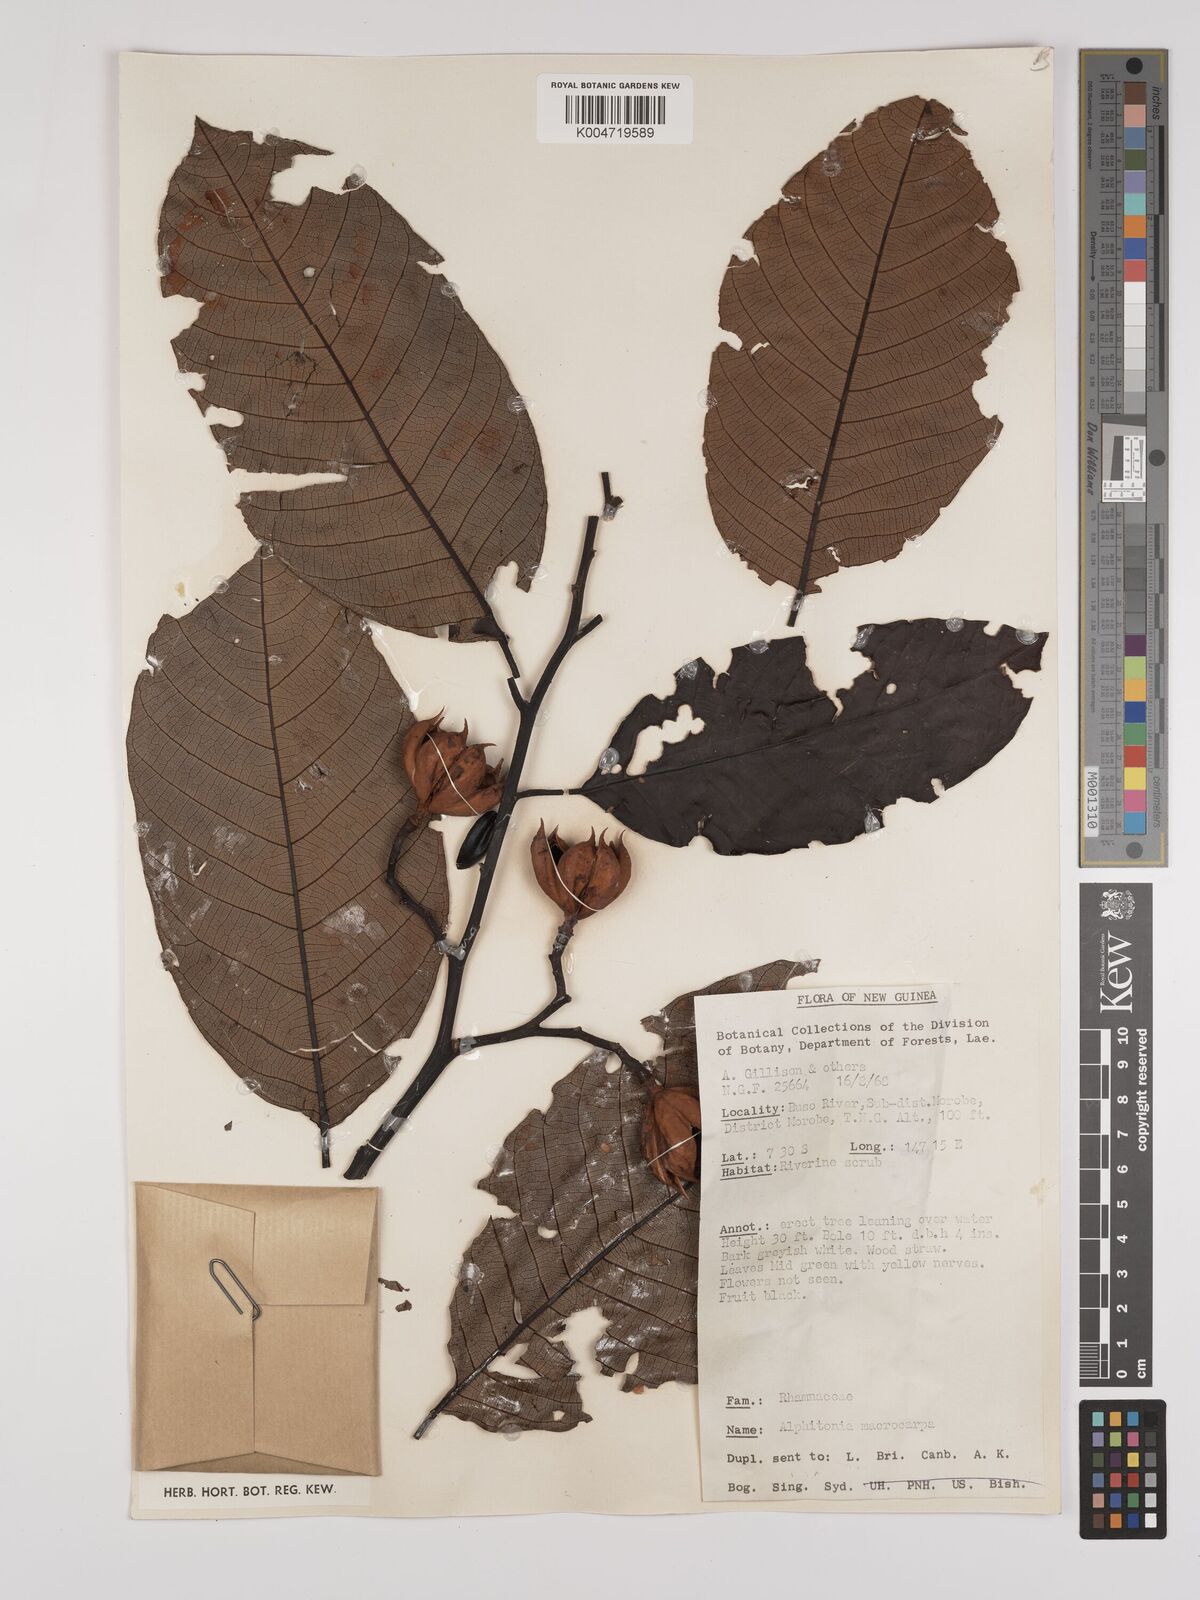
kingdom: Plantae
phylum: Tracheophyta
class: Magnoliopsida
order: Rosales
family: Rhamnaceae
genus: Alphitonia
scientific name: Alphitonia macrocarpa
